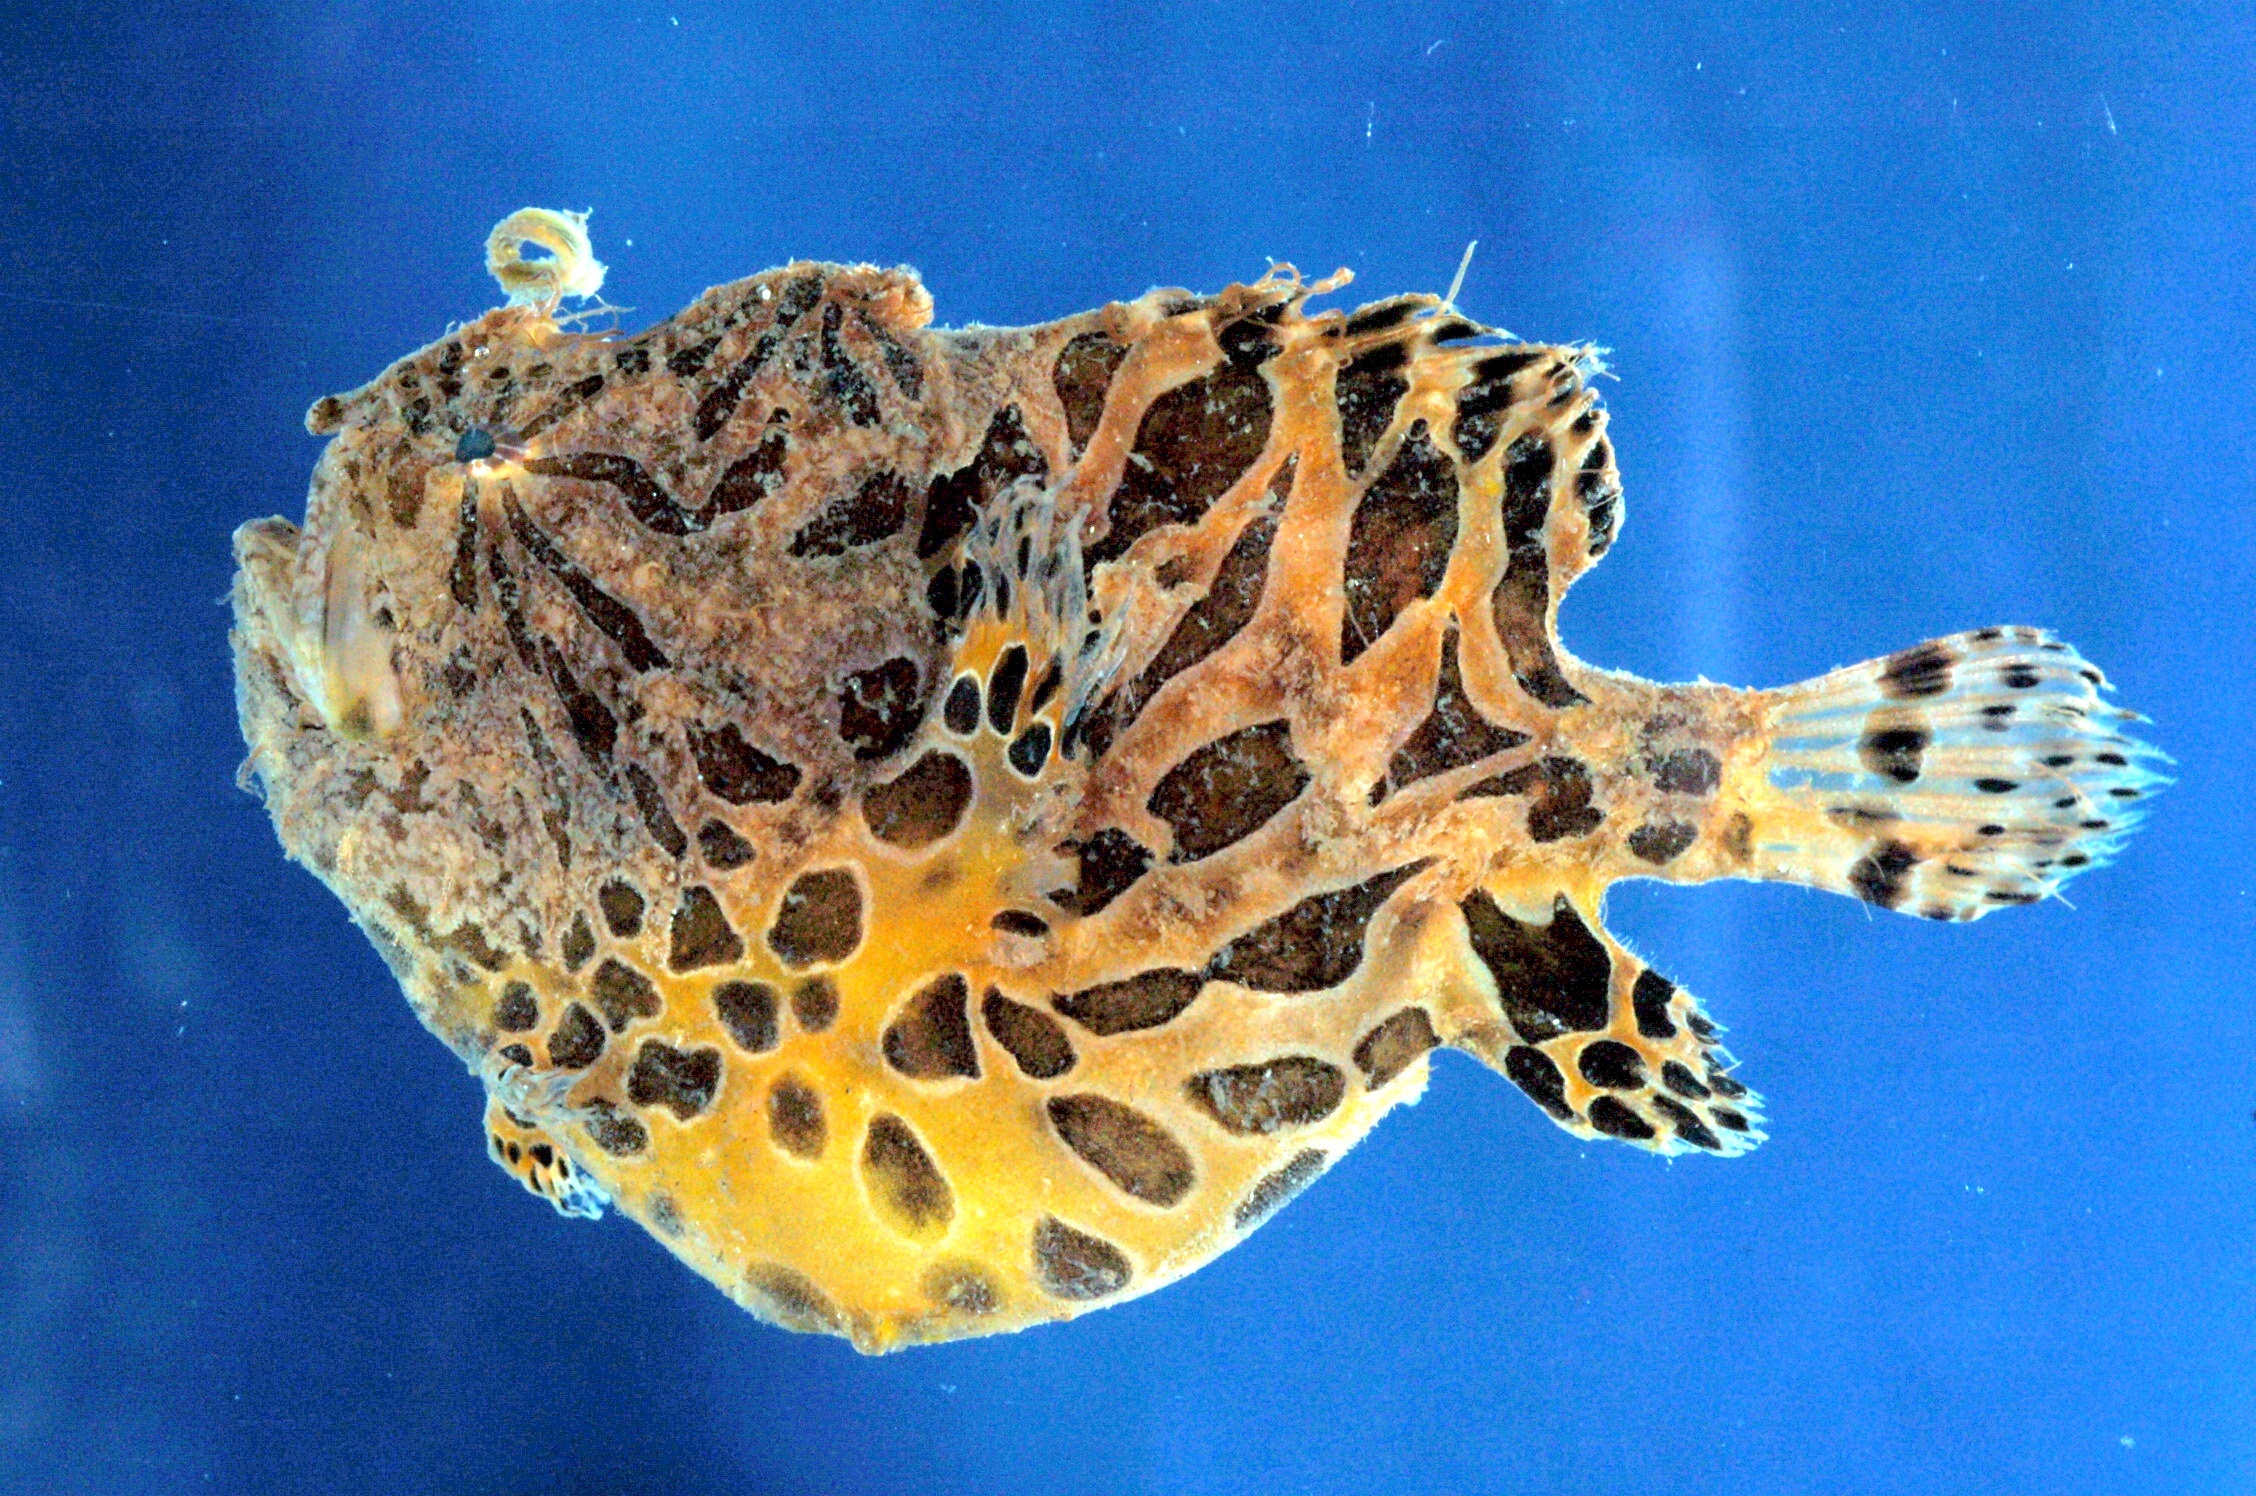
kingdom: Animalia
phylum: Chordata
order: Lophiiformes
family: Antennariidae
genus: Antennarius
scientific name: Antennarius striatus
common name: Striated frogfish
